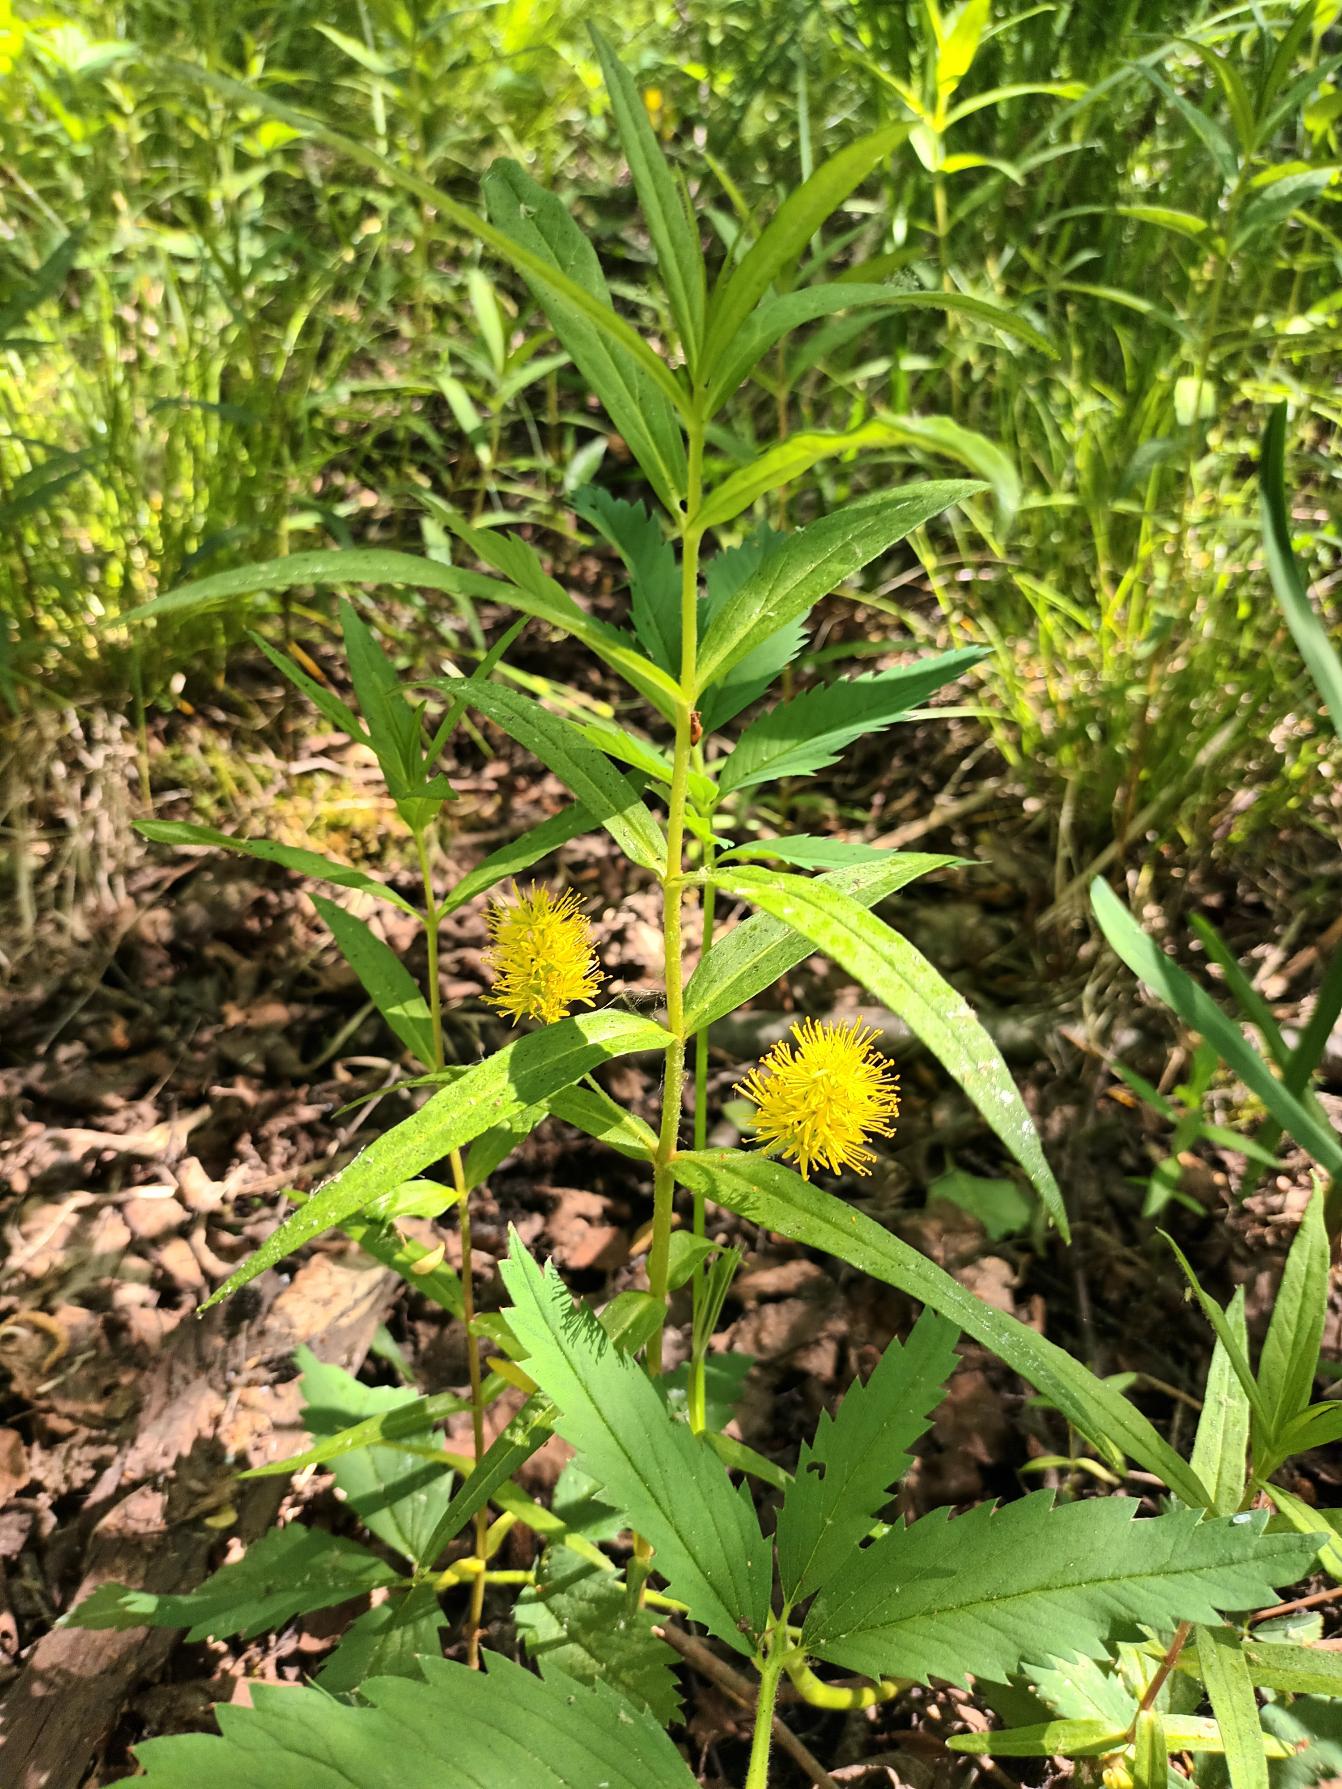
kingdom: Plantae
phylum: Tracheophyta
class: Magnoliopsida
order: Ericales
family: Primulaceae
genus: Lysimachia
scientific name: Lysimachia thyrsiflora
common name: Dusk-fredløs
